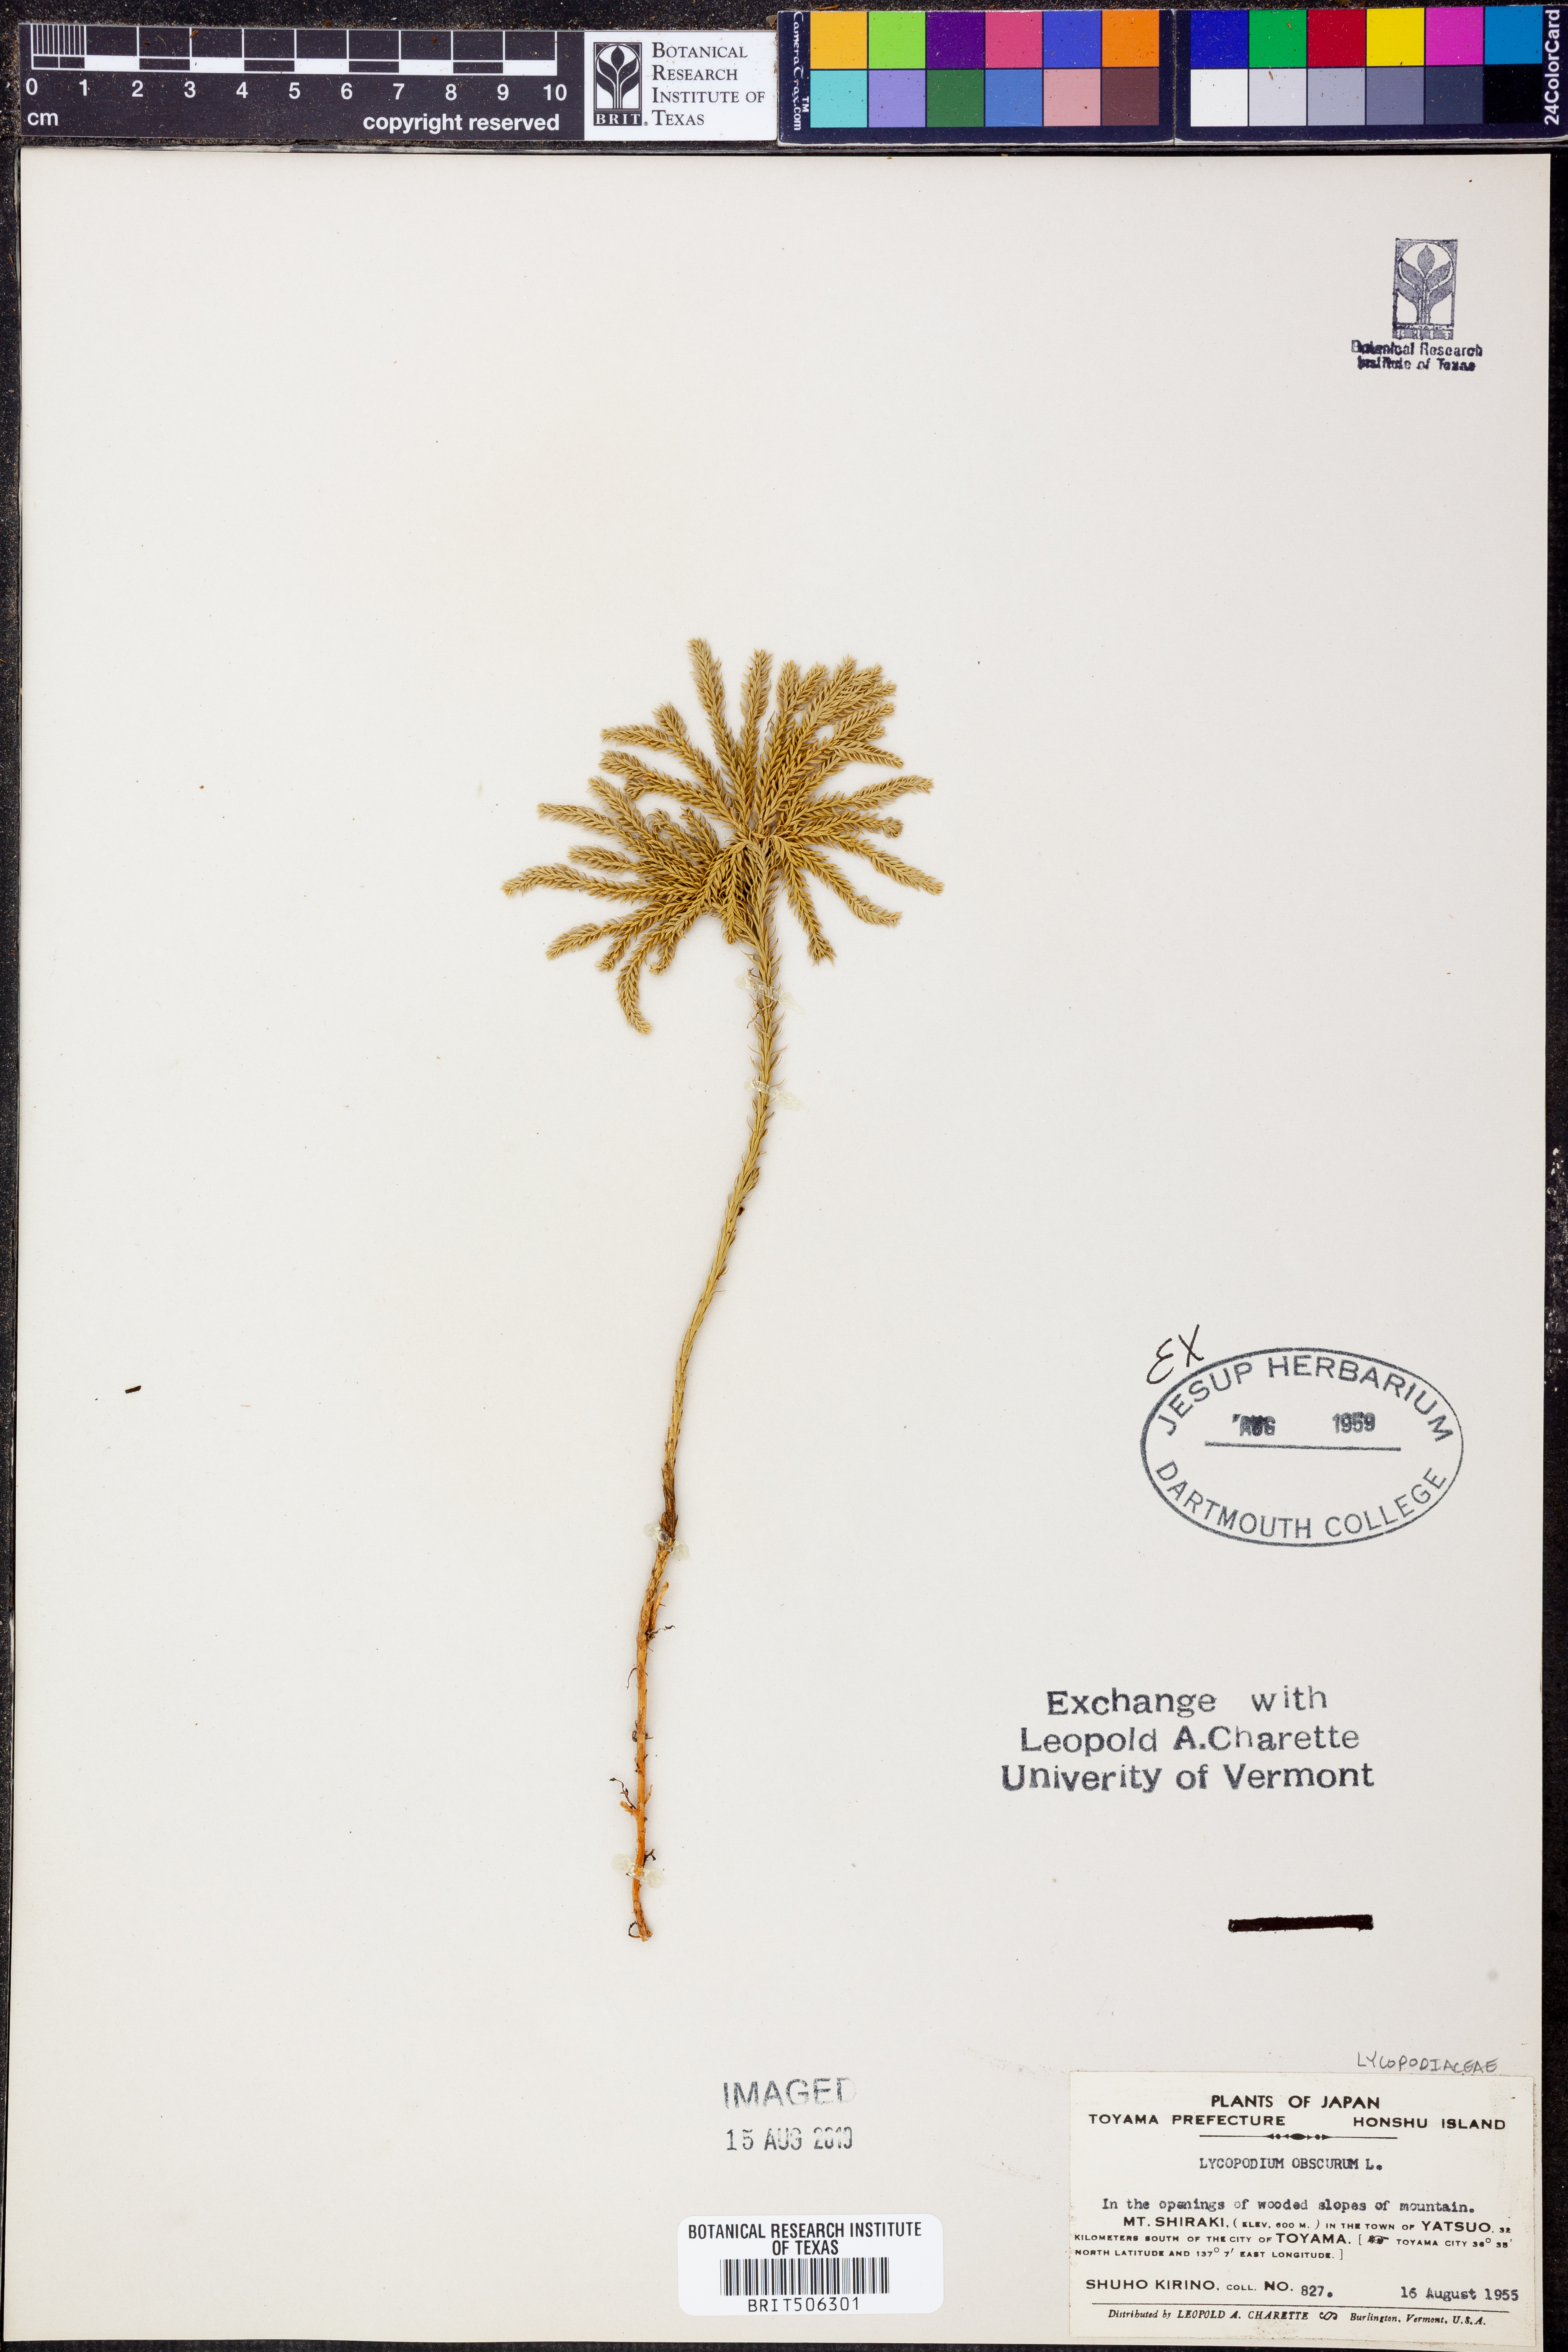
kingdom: Plantae
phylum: Tracheophyta
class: Lycopodiopsida
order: Lycopodiales
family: Lycopodiaceae
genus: Dendrolycopodium
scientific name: Dendrolycopodium obscurum
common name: Common ground-pine
